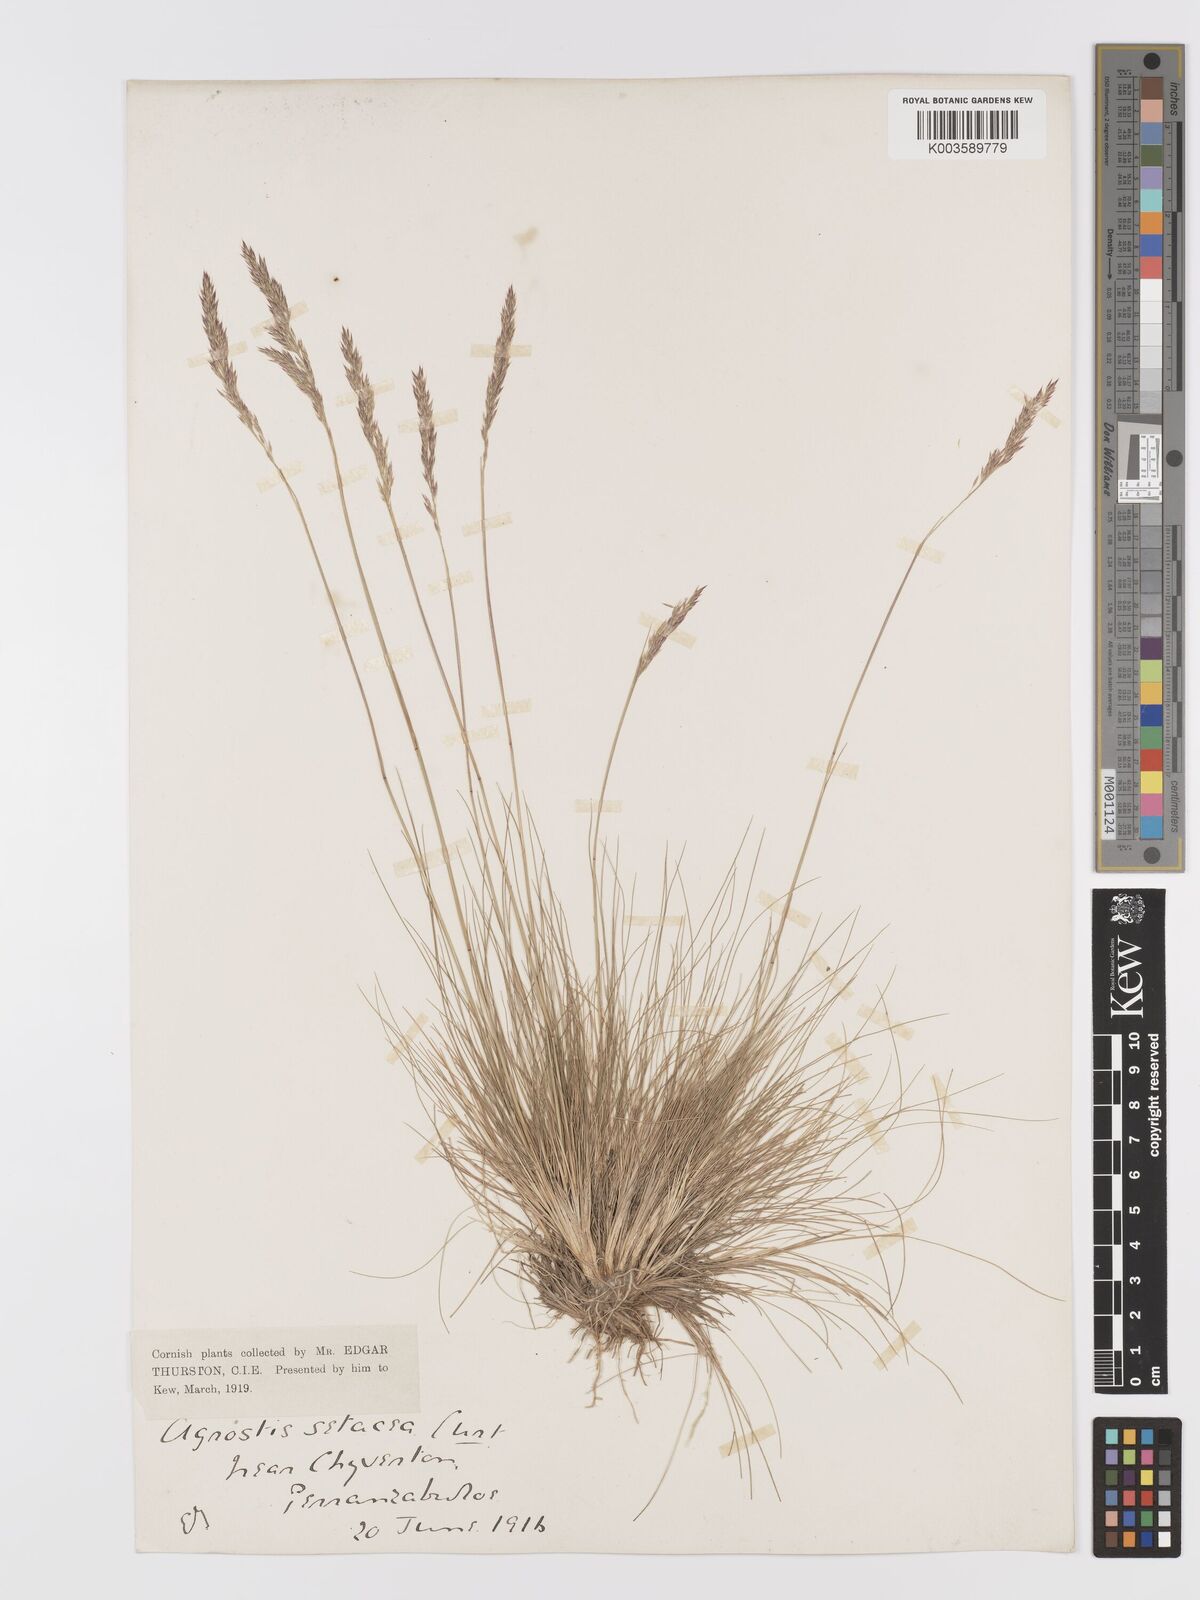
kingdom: Plantae
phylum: Tracheophyta
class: Liliopsida
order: Poales
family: Poaceae
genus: Alpagrostis
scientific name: Alpagrostis setacea
